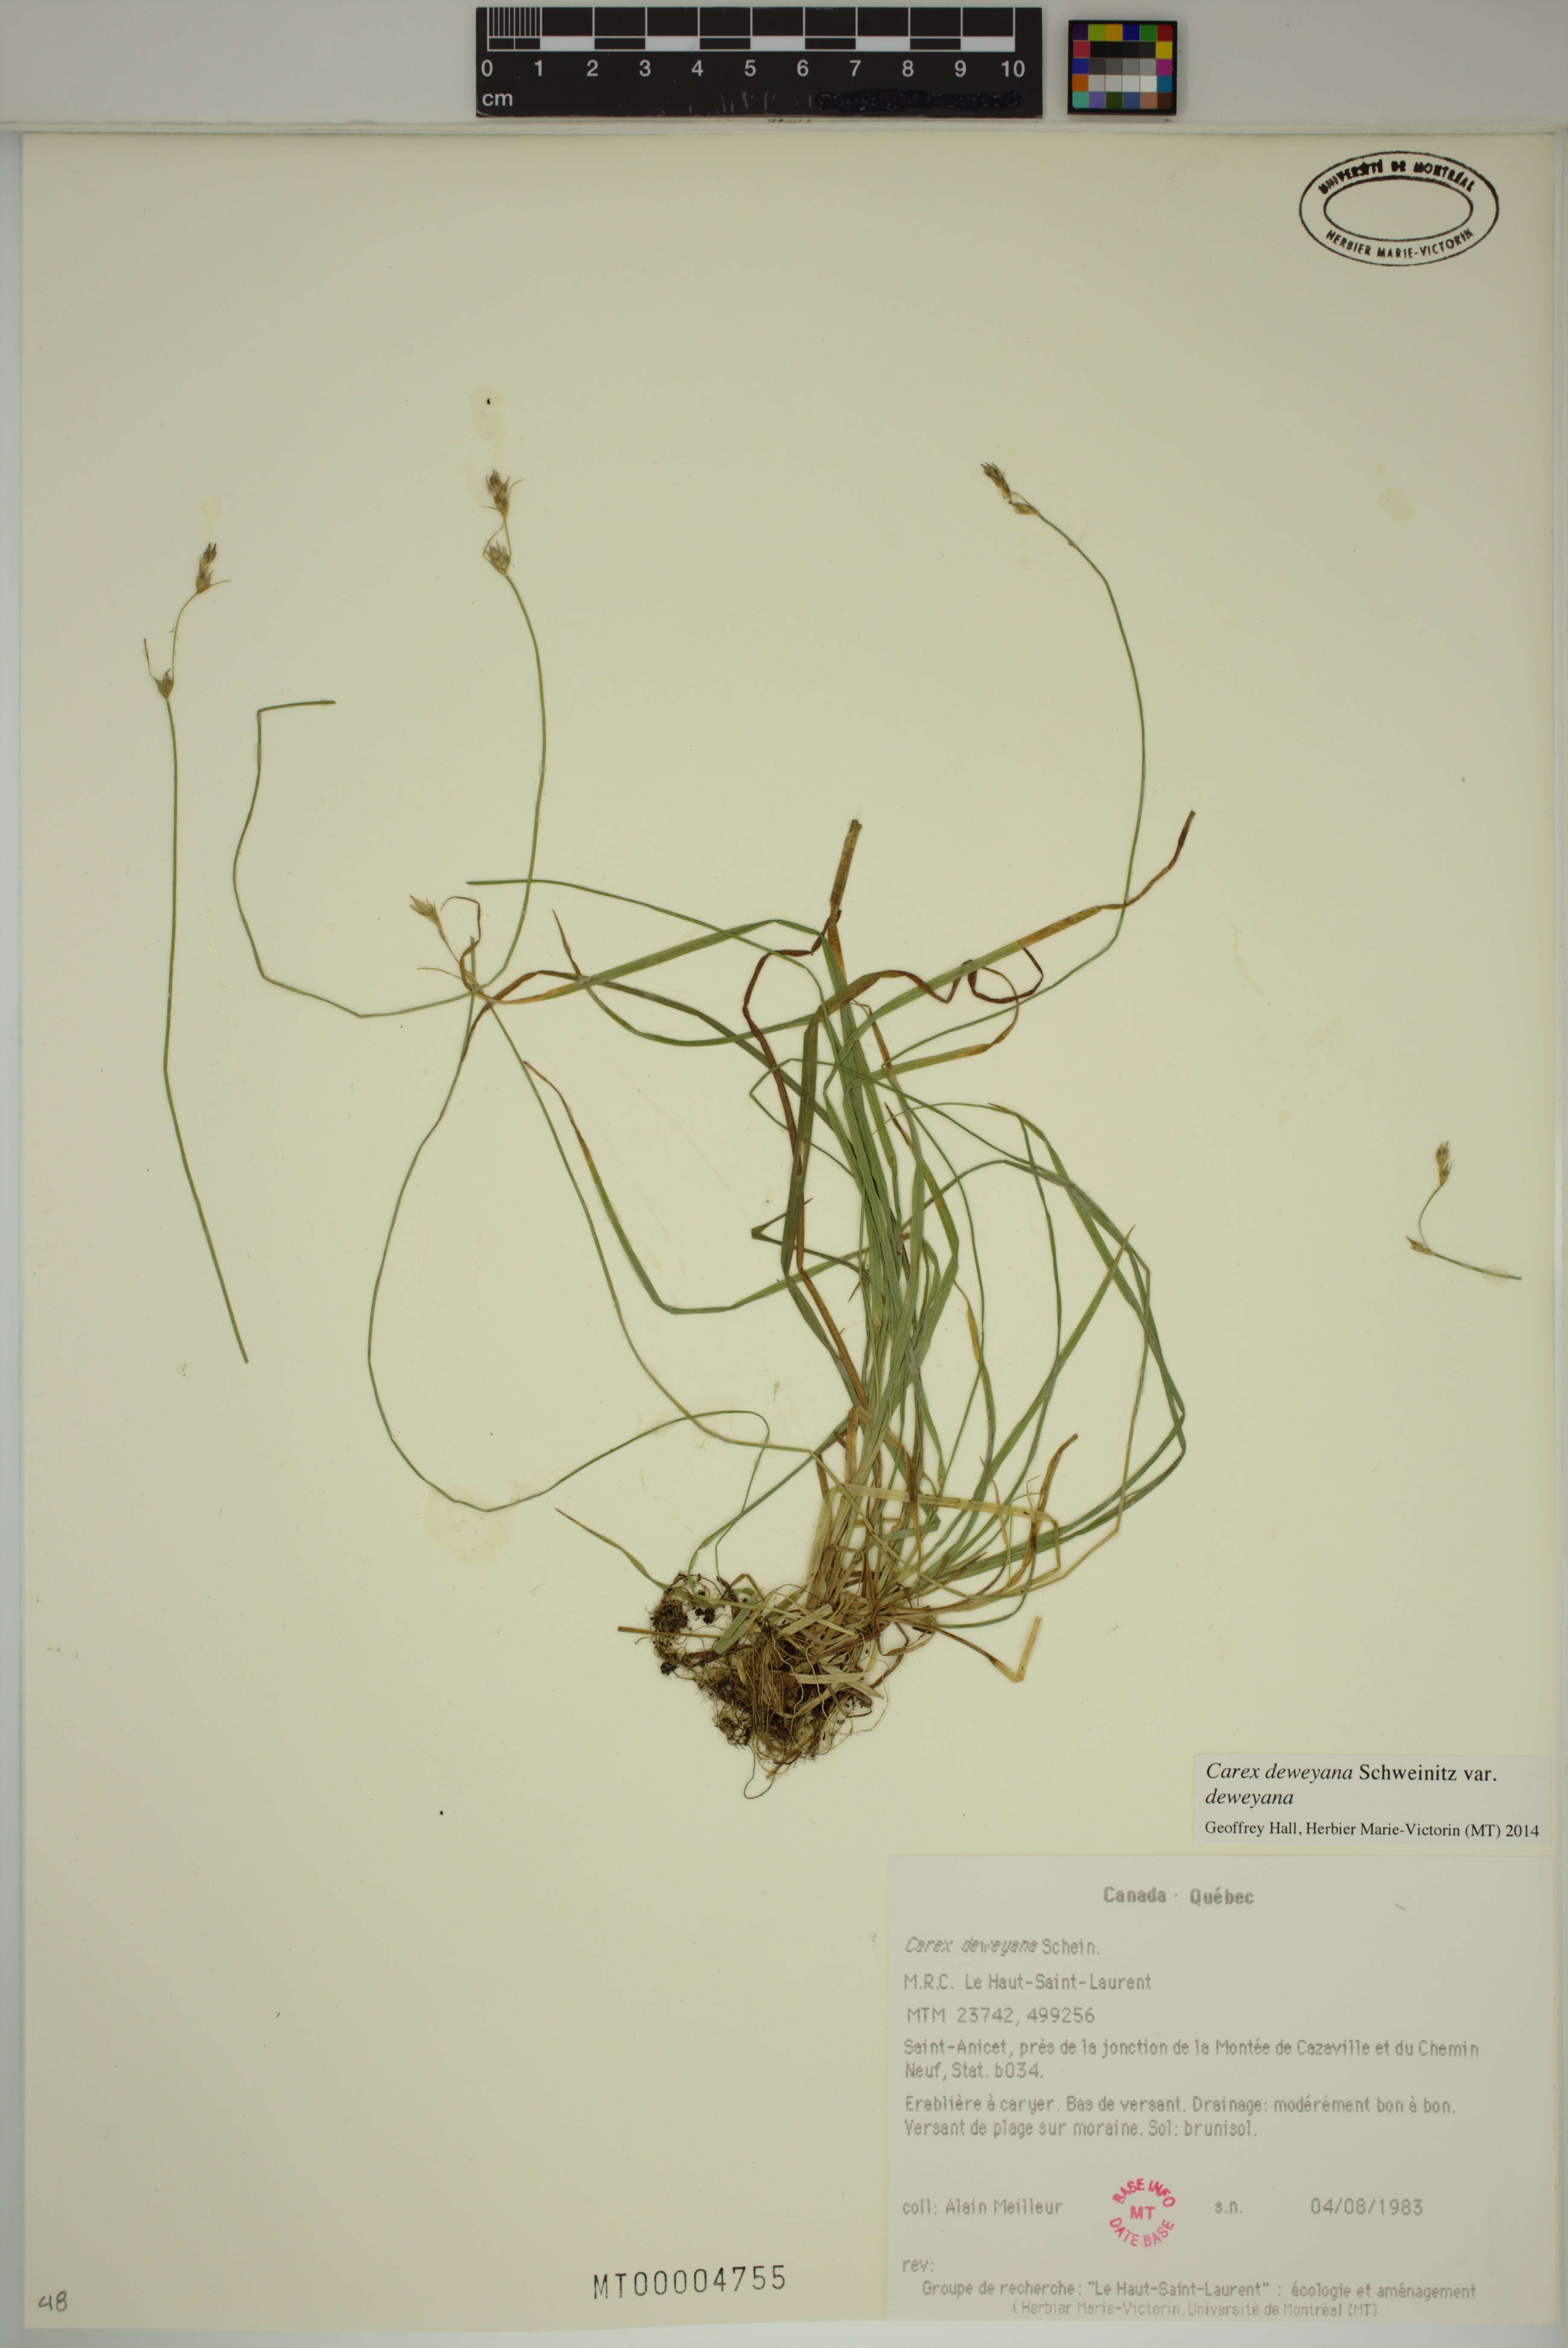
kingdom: Plantae
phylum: Tracheophyta
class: Liliopsida
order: Poales
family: Cyperaceae
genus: Carex
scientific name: Carex deweyana
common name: Dewey's sedge
